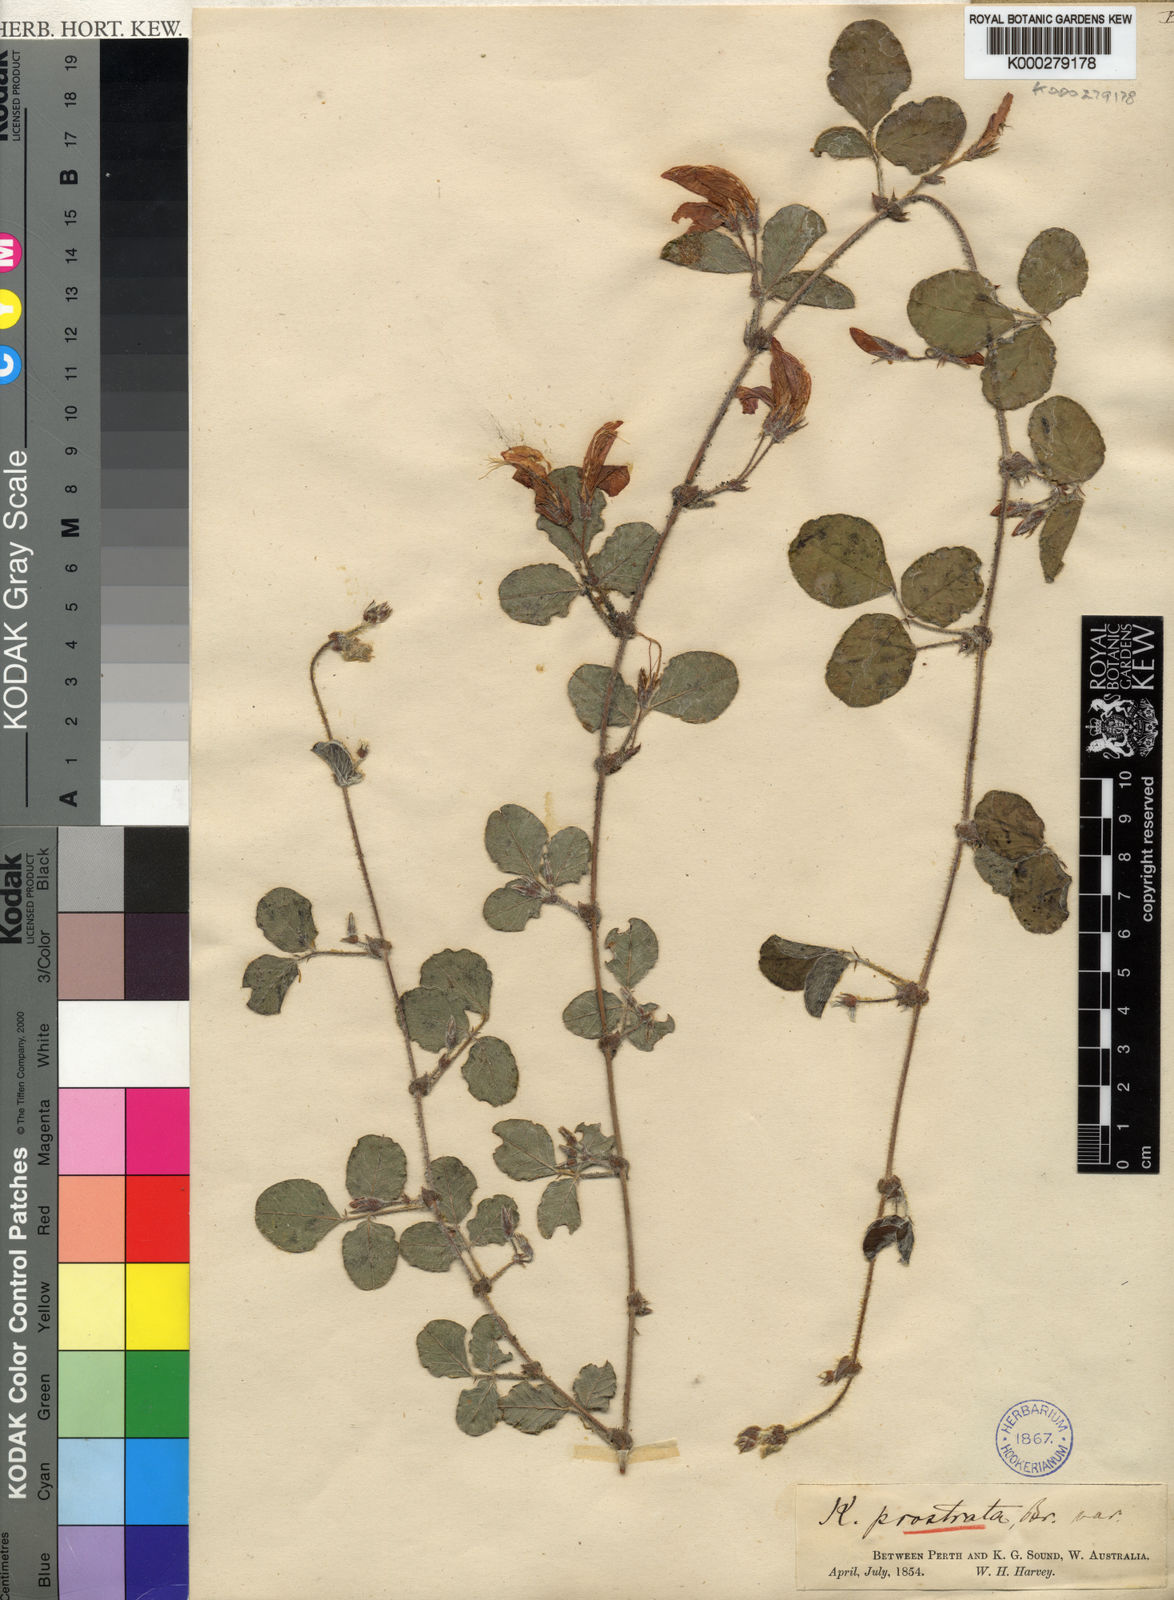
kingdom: Plantae
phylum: Tracheophyta
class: Magnoliopsida
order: Fabales
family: Fabaceae
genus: Kennedia
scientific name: Kennedia prostrata
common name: Running-postman
